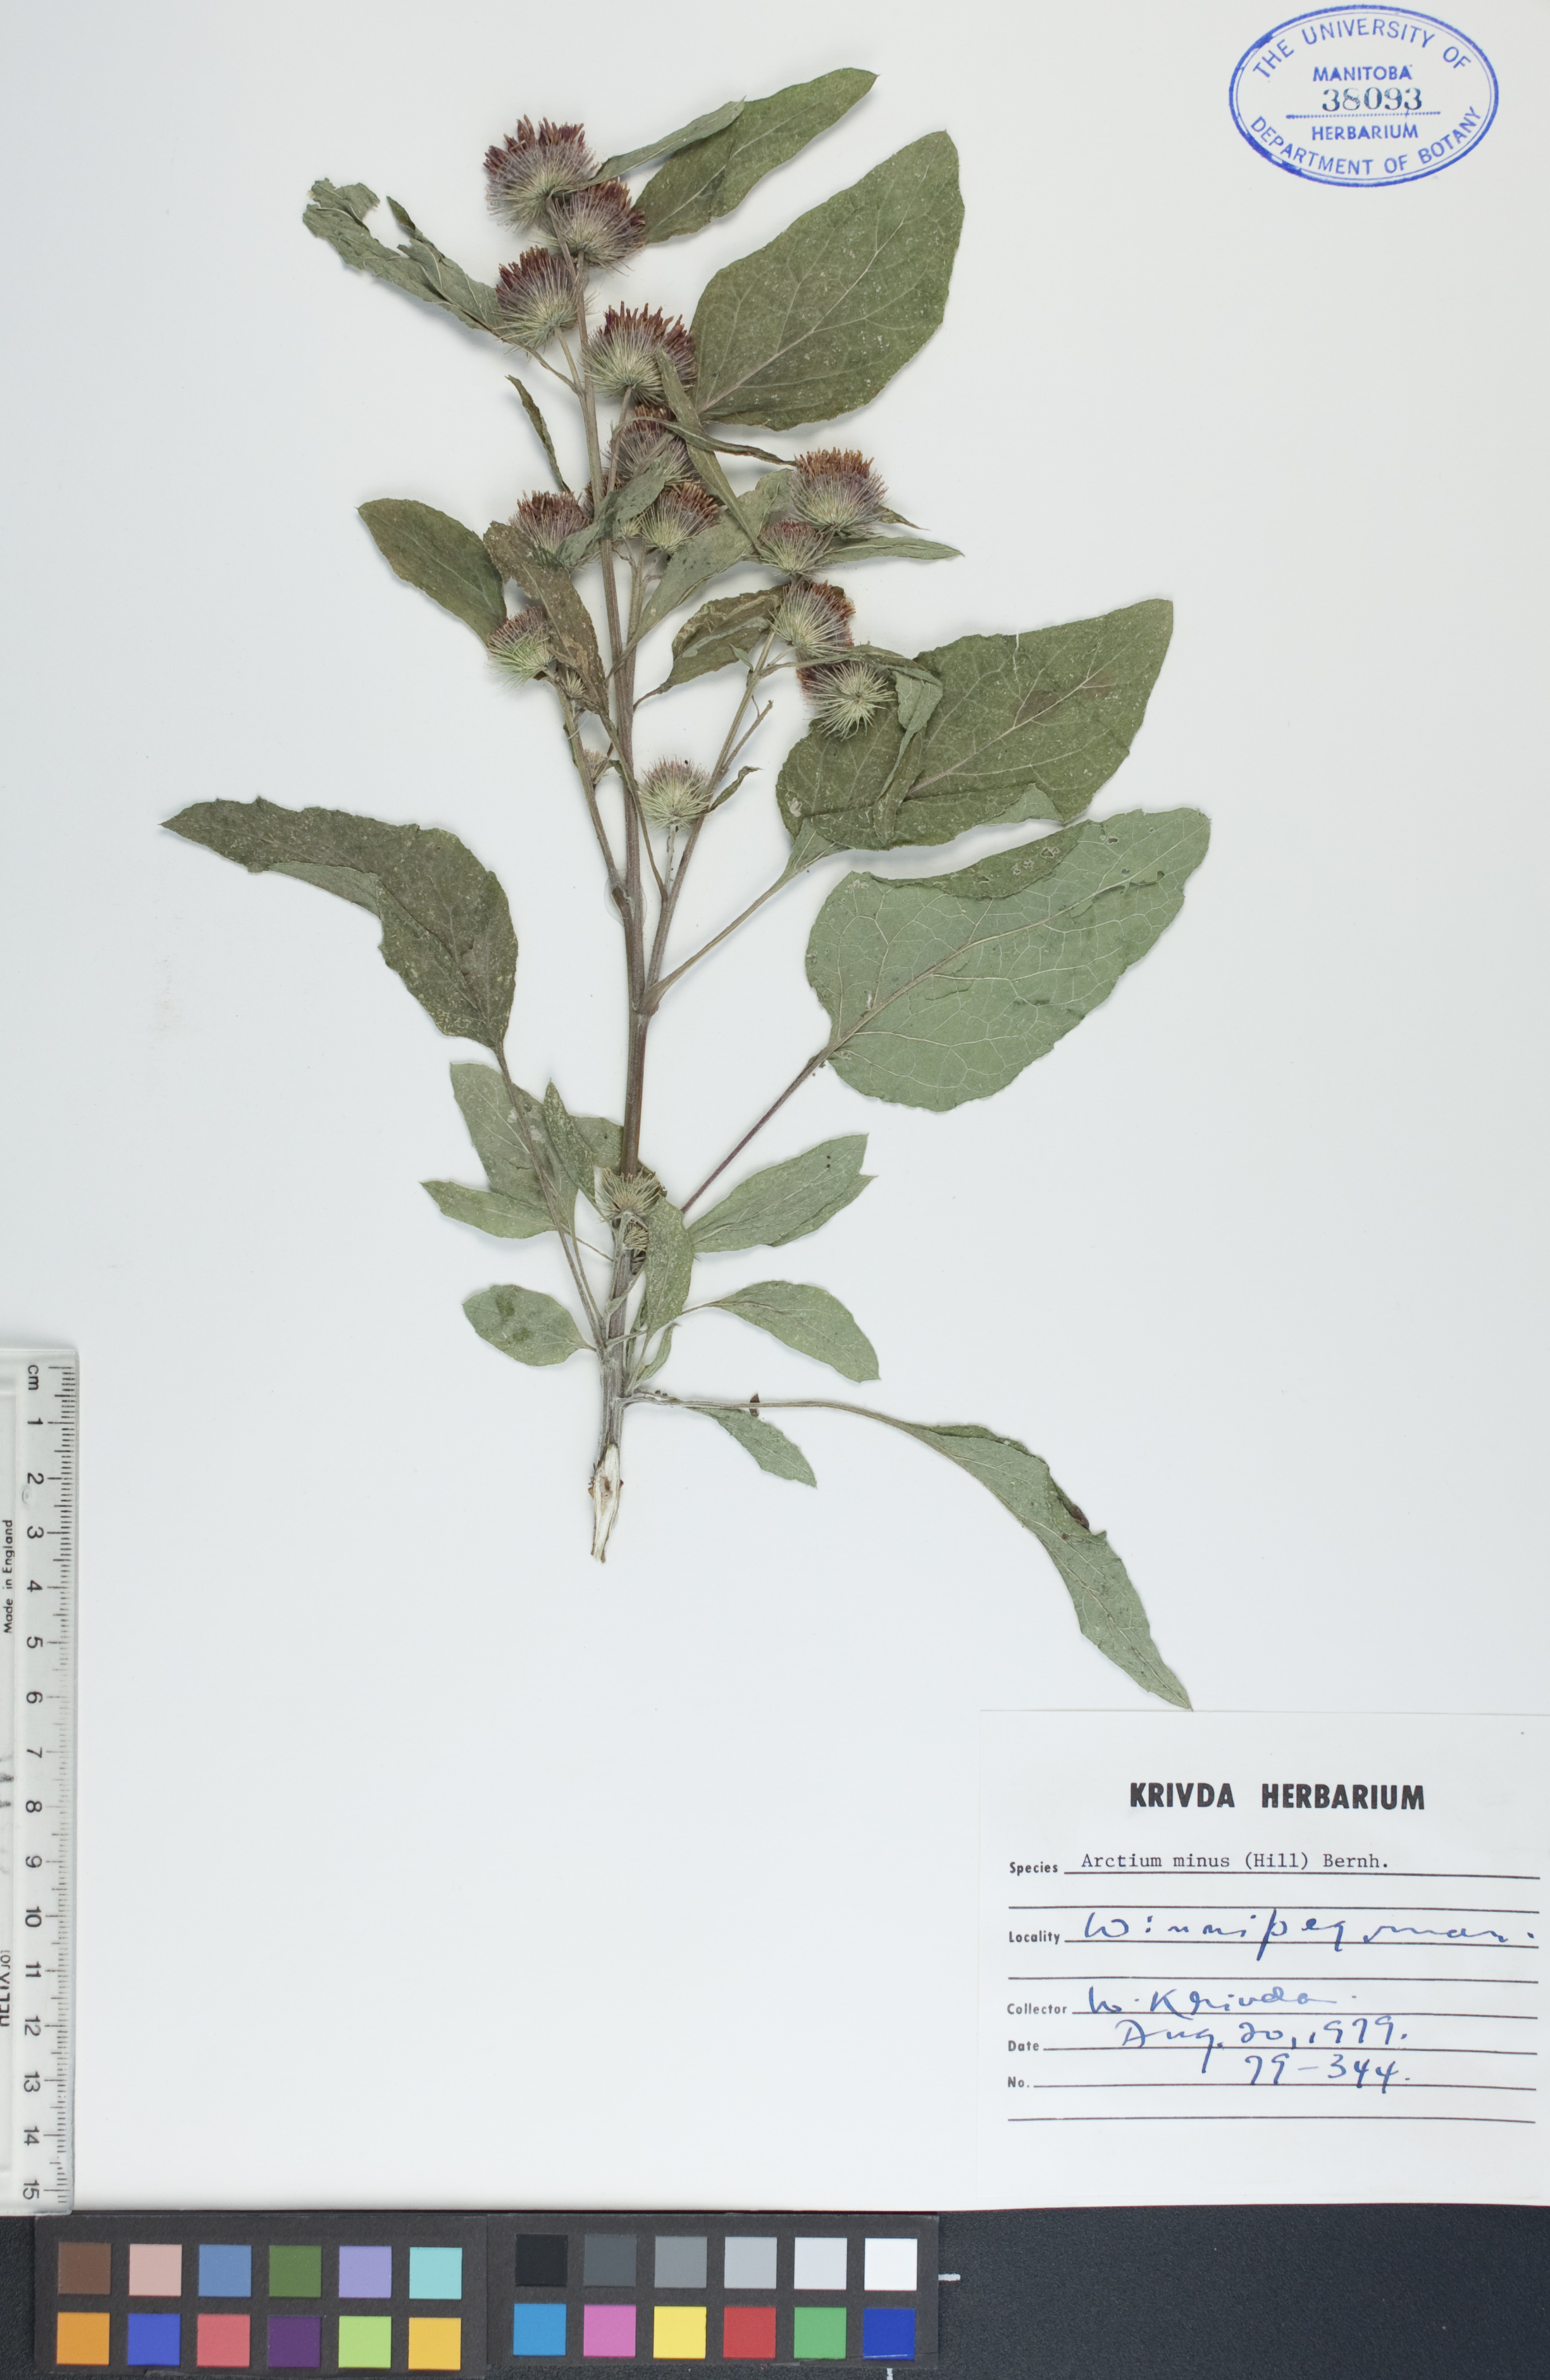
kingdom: Plantae
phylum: Tracheophyta
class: Magnoliopsida
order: Asterales
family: Asteraceae
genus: Arctium
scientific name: Arctium minus
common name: Lesser burdock
